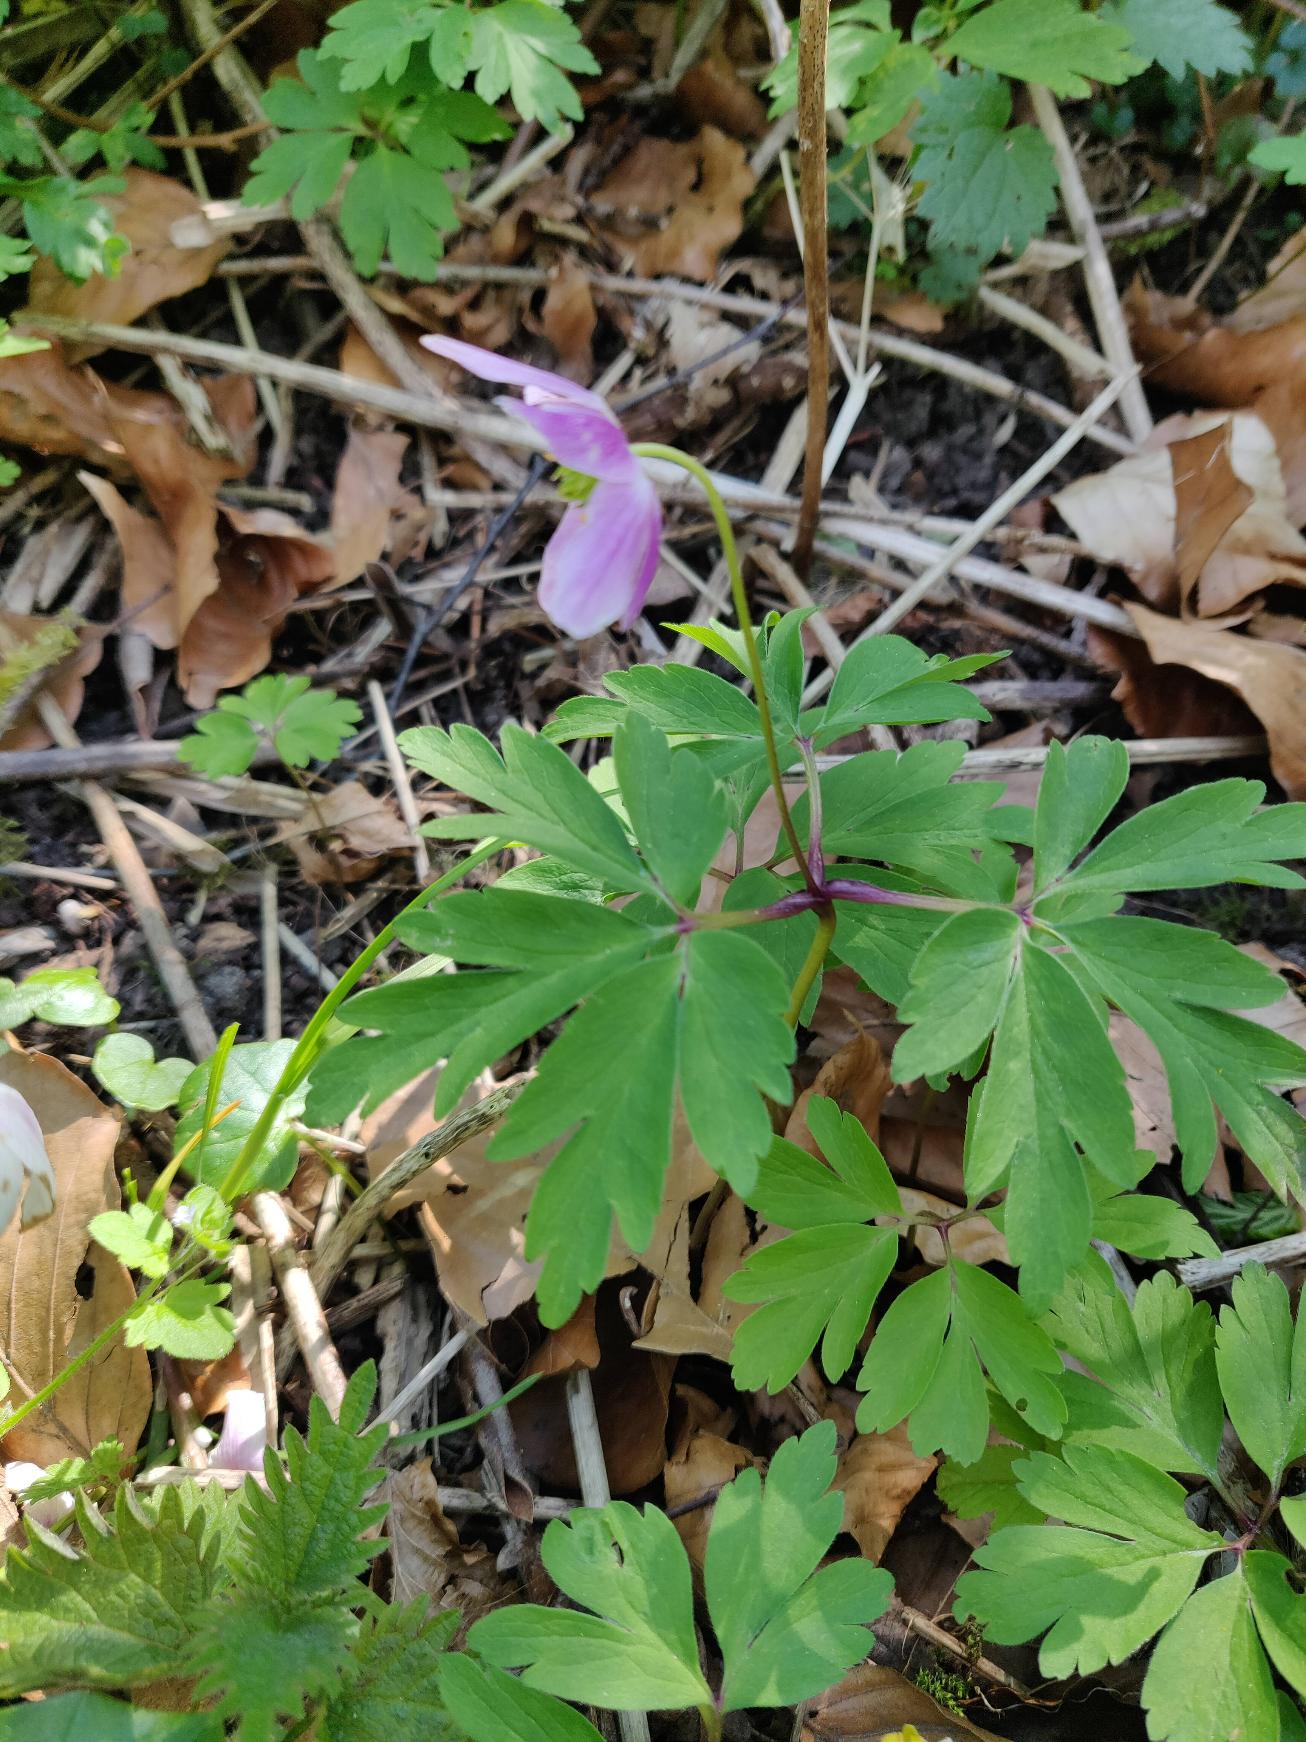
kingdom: Plantae
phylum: Tracheophyta
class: Magnoliopsida
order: Ranunculales
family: Ranunculaceae
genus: Anemone
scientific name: Anemone nemorosa
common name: Hvid anemone
